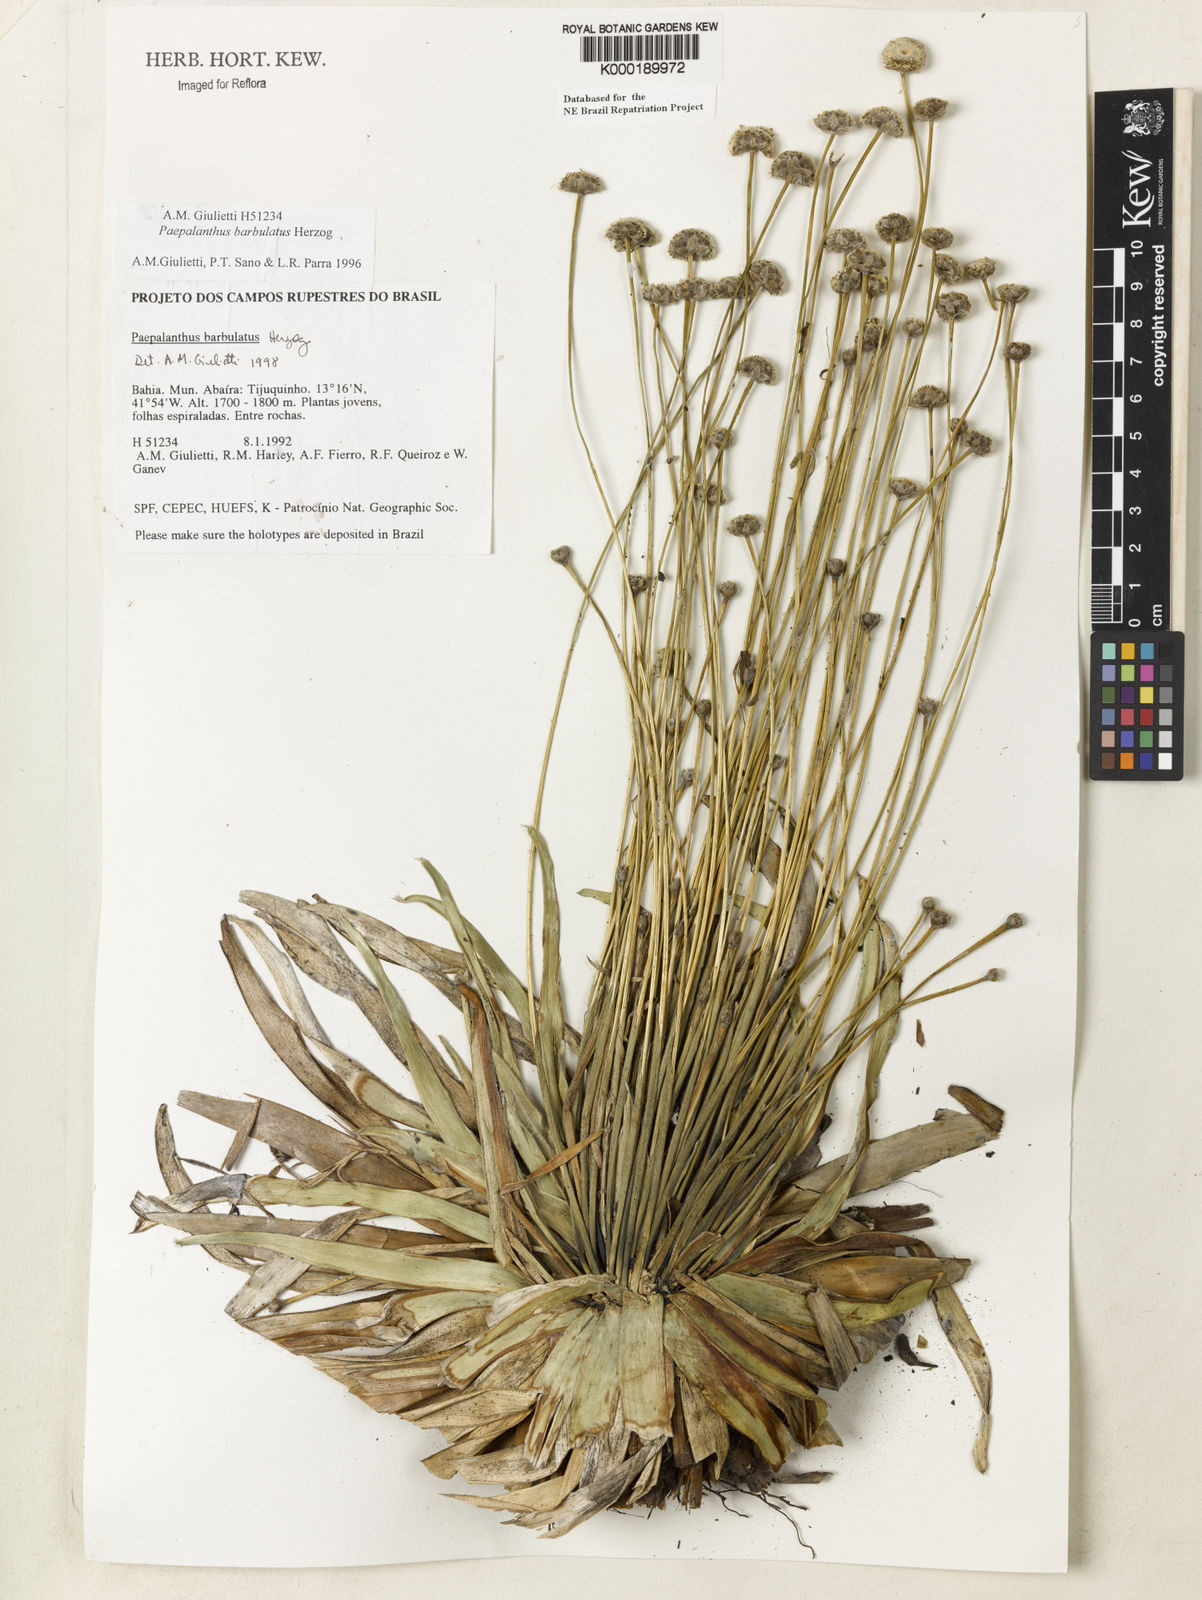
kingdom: Plantae
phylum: Tracheophyta
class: Liliopsida
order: Poales
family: Eriocaulaceae
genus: Paepalanthus
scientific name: Paepalanthus barbulatus
